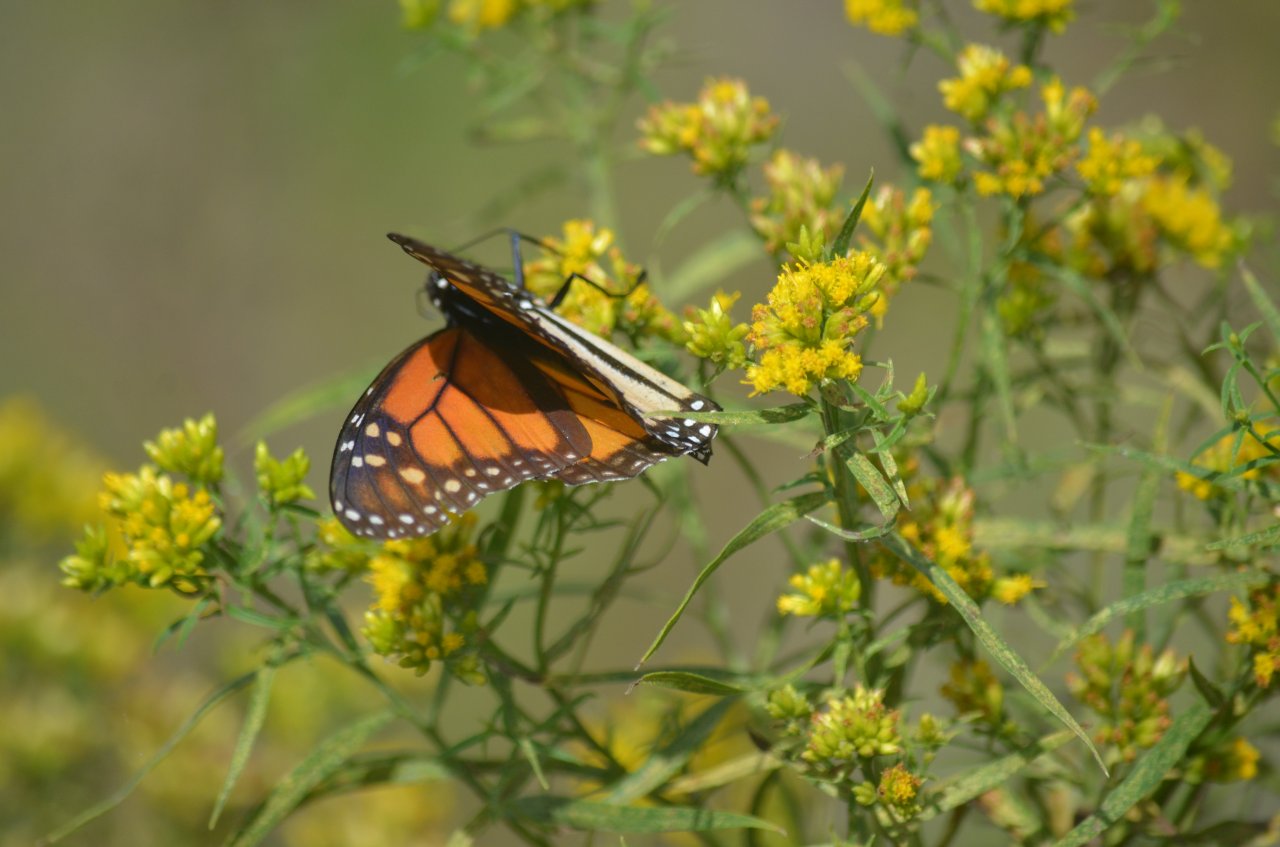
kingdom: Animalia
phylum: Arthropoda
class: Insecta
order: Lepidoptera
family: Nymphalidae
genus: Danaus
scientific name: Danaus plexippus
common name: Monarch
